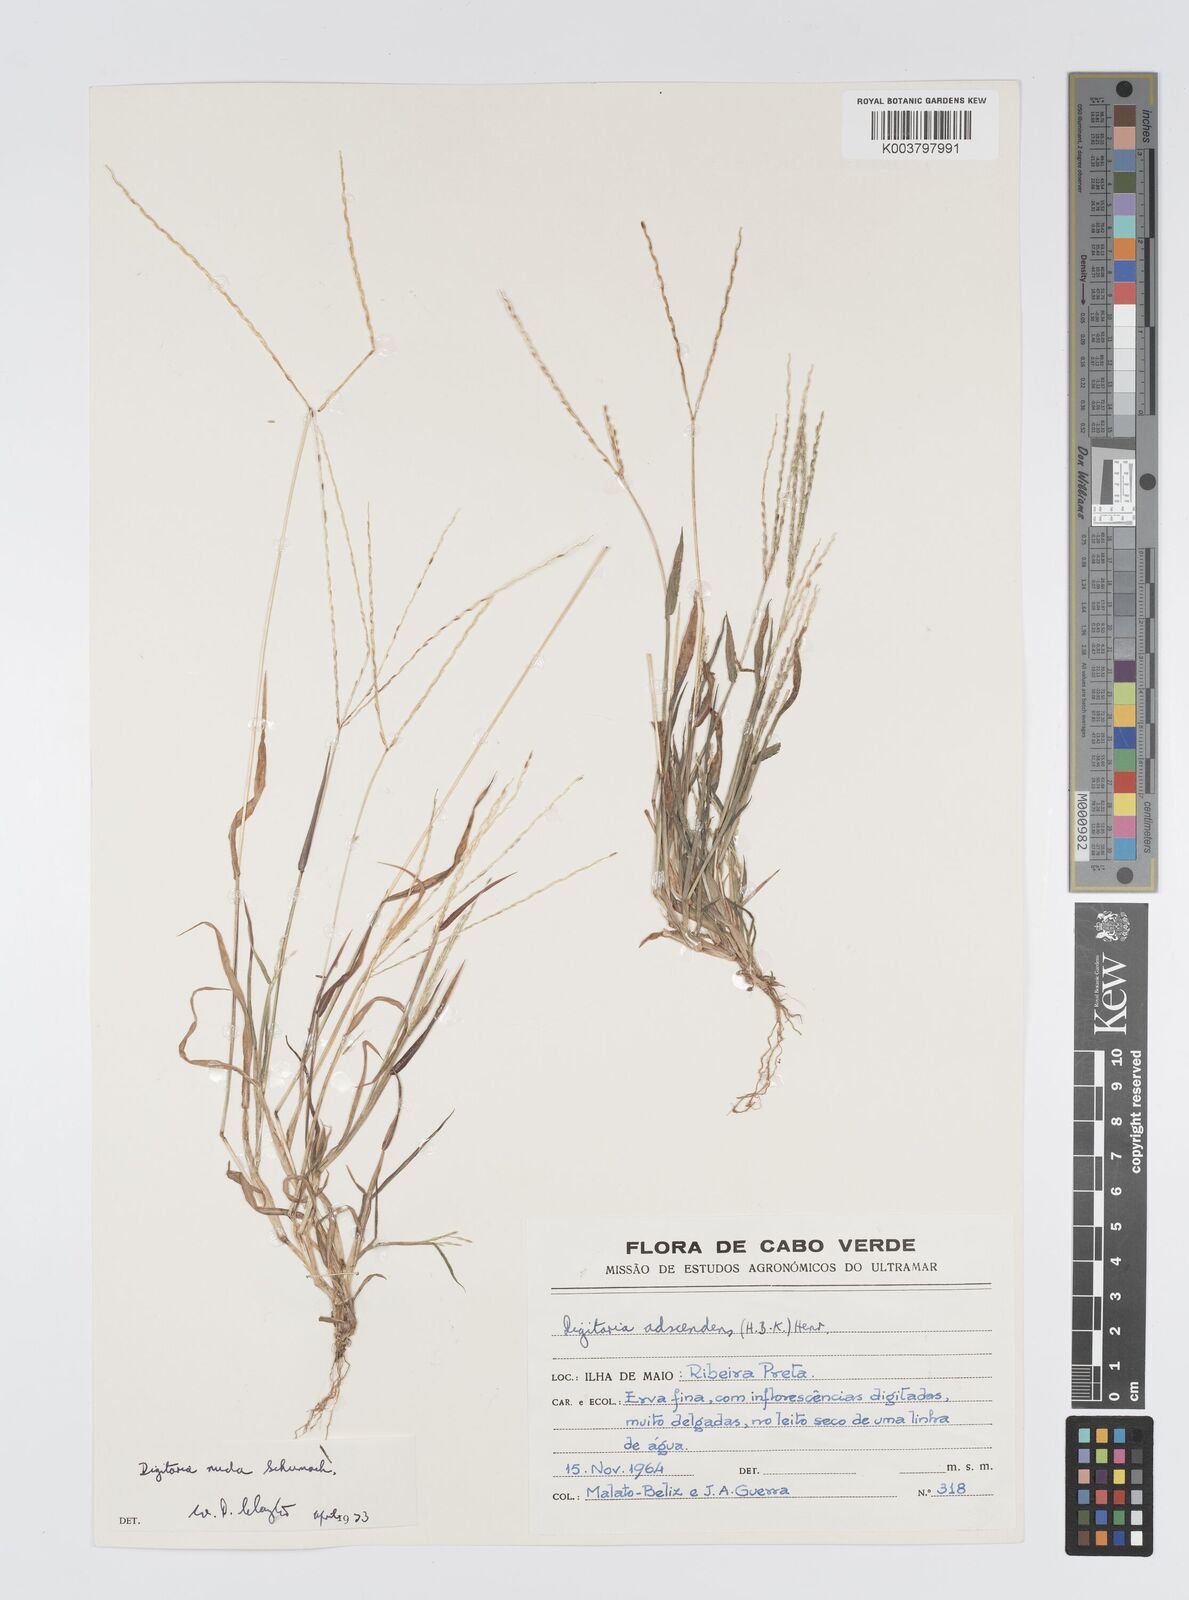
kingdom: Plantae
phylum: Tracheophyta
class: Liliopsida
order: Poales
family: Poaceae
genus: Digitaria
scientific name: Digitaria nuda
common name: Naked crabgrass
